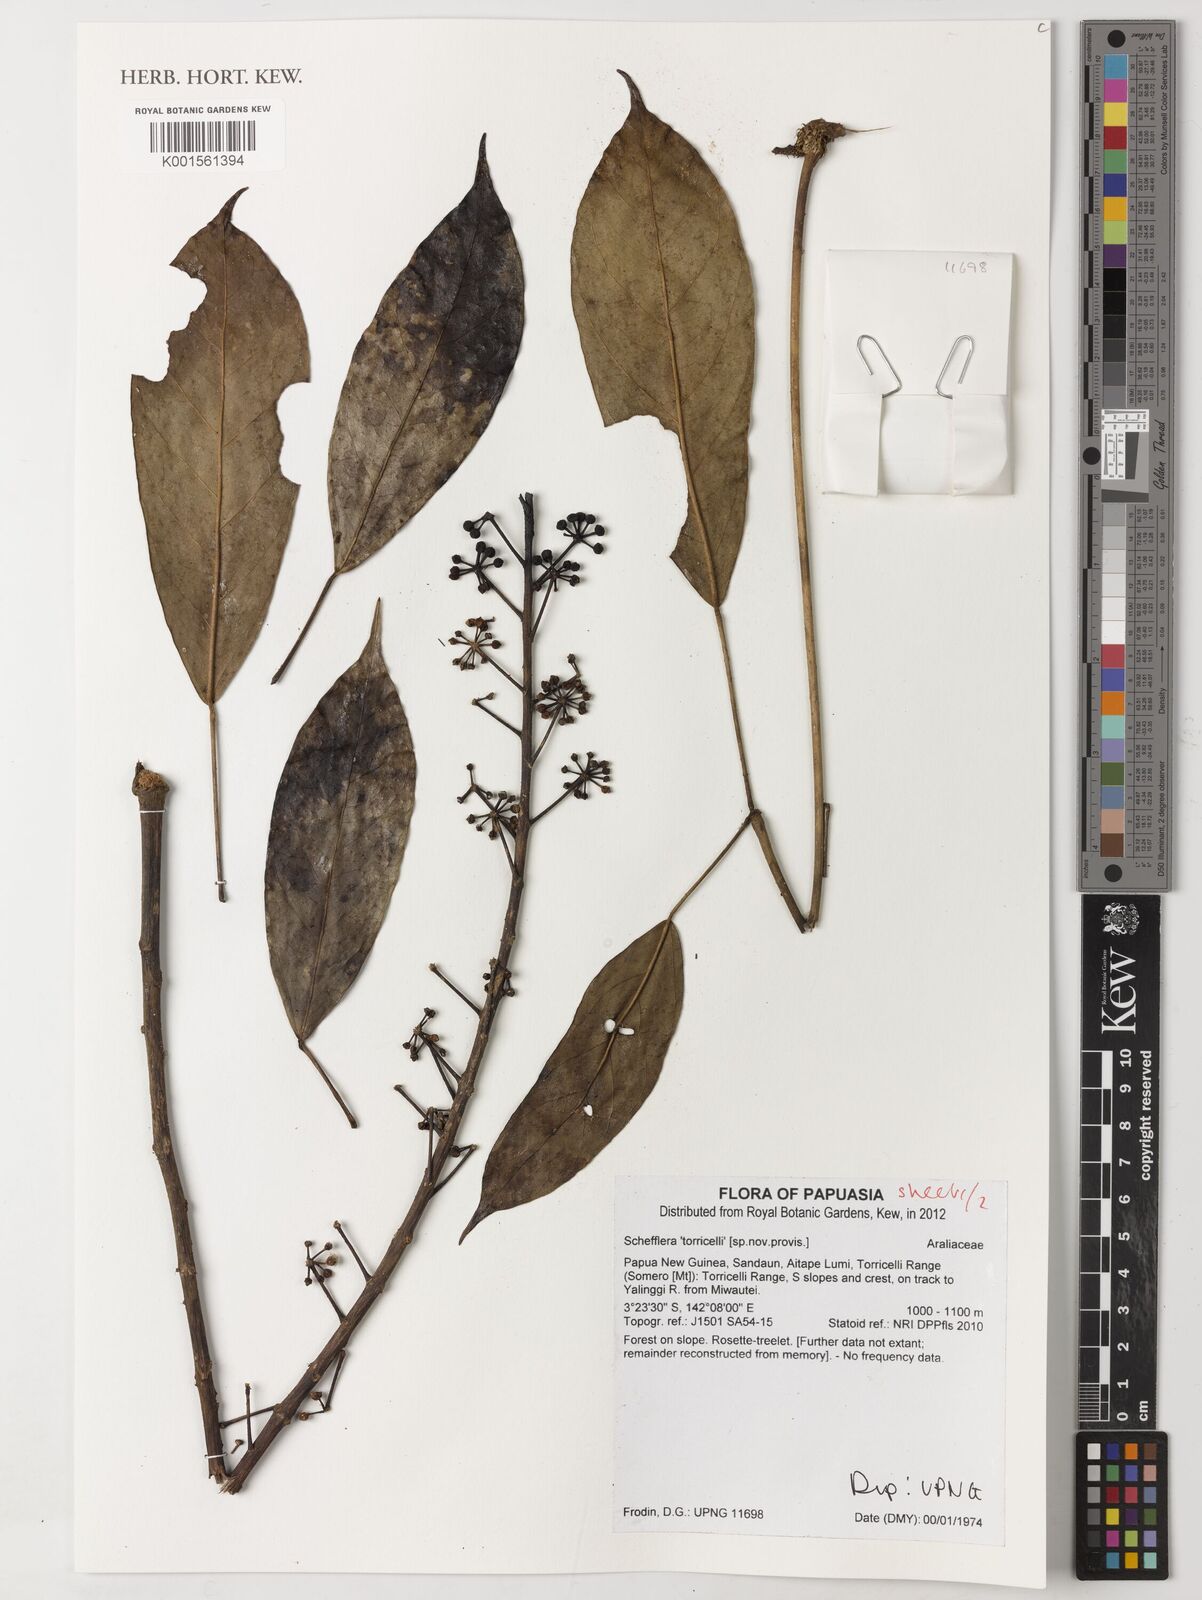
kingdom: Plantae
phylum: Tracheophyta
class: Magnoliopsida
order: Apiales
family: Araliaceae
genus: Schefflera
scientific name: Schefflera
